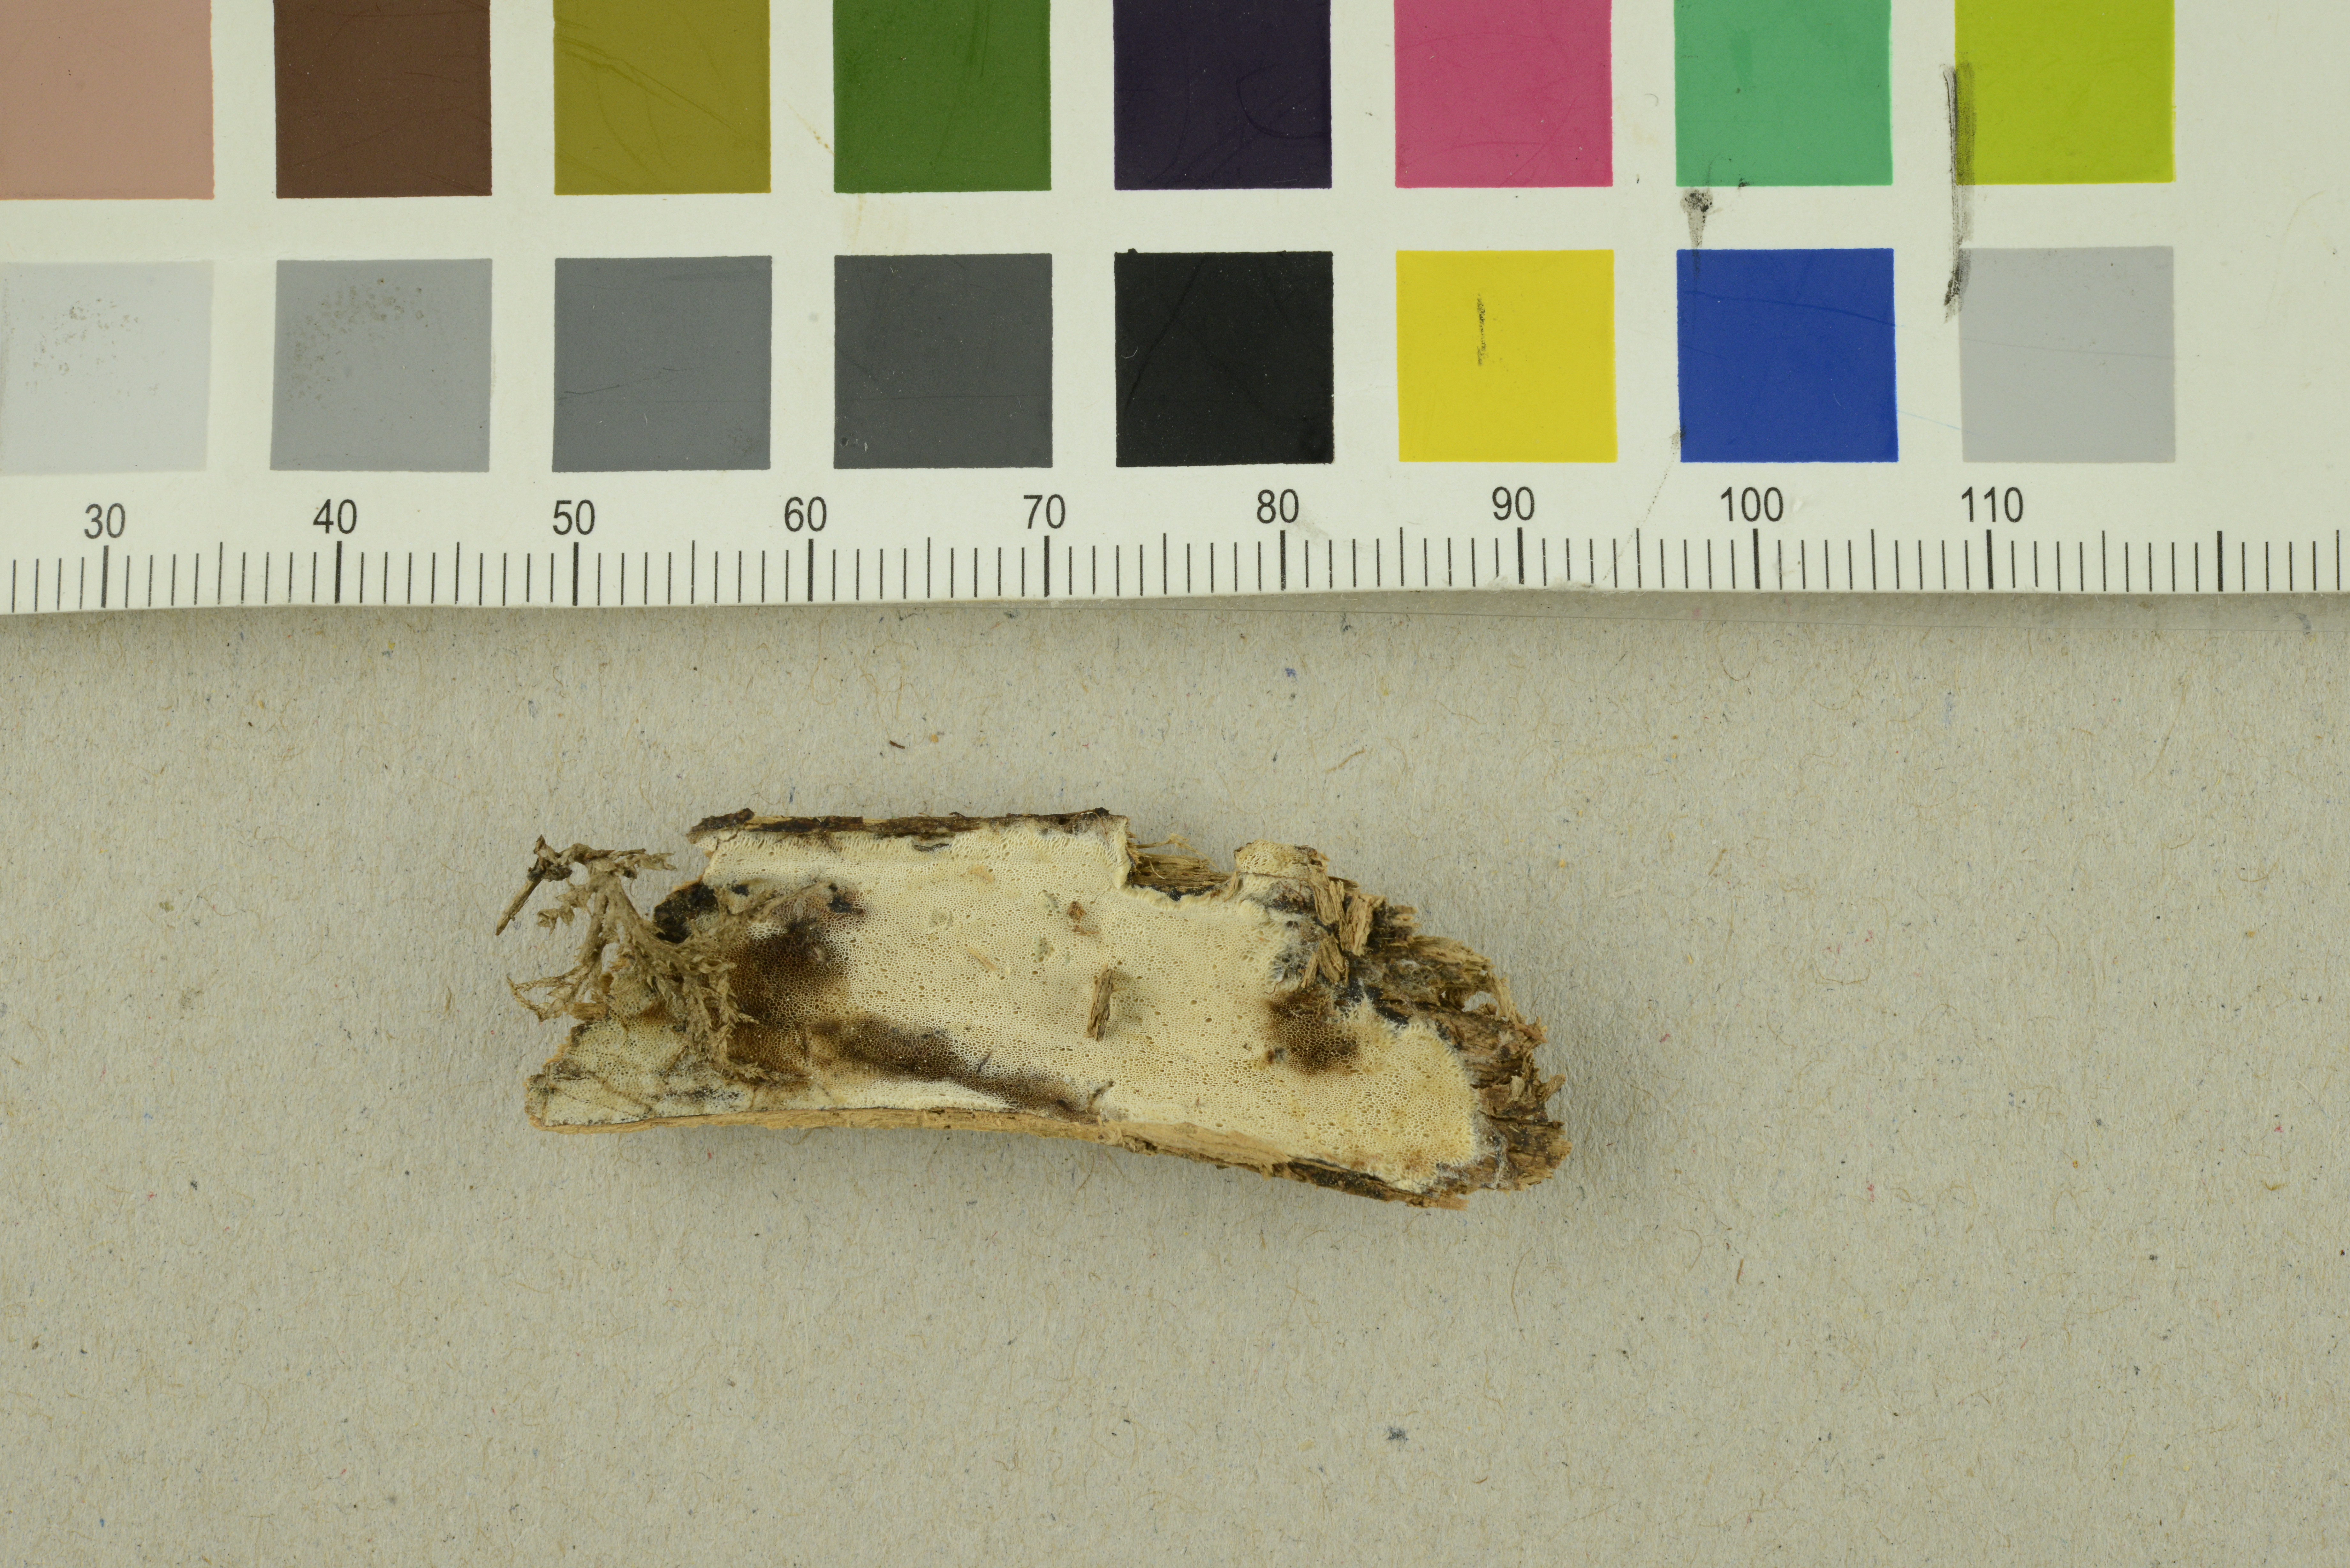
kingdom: Fungi
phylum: Basidiomycota
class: Agaricomycetes
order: Polyporales
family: Meruliaceae
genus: Ceriporiopsis
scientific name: Ceriporiopsis jelicii
